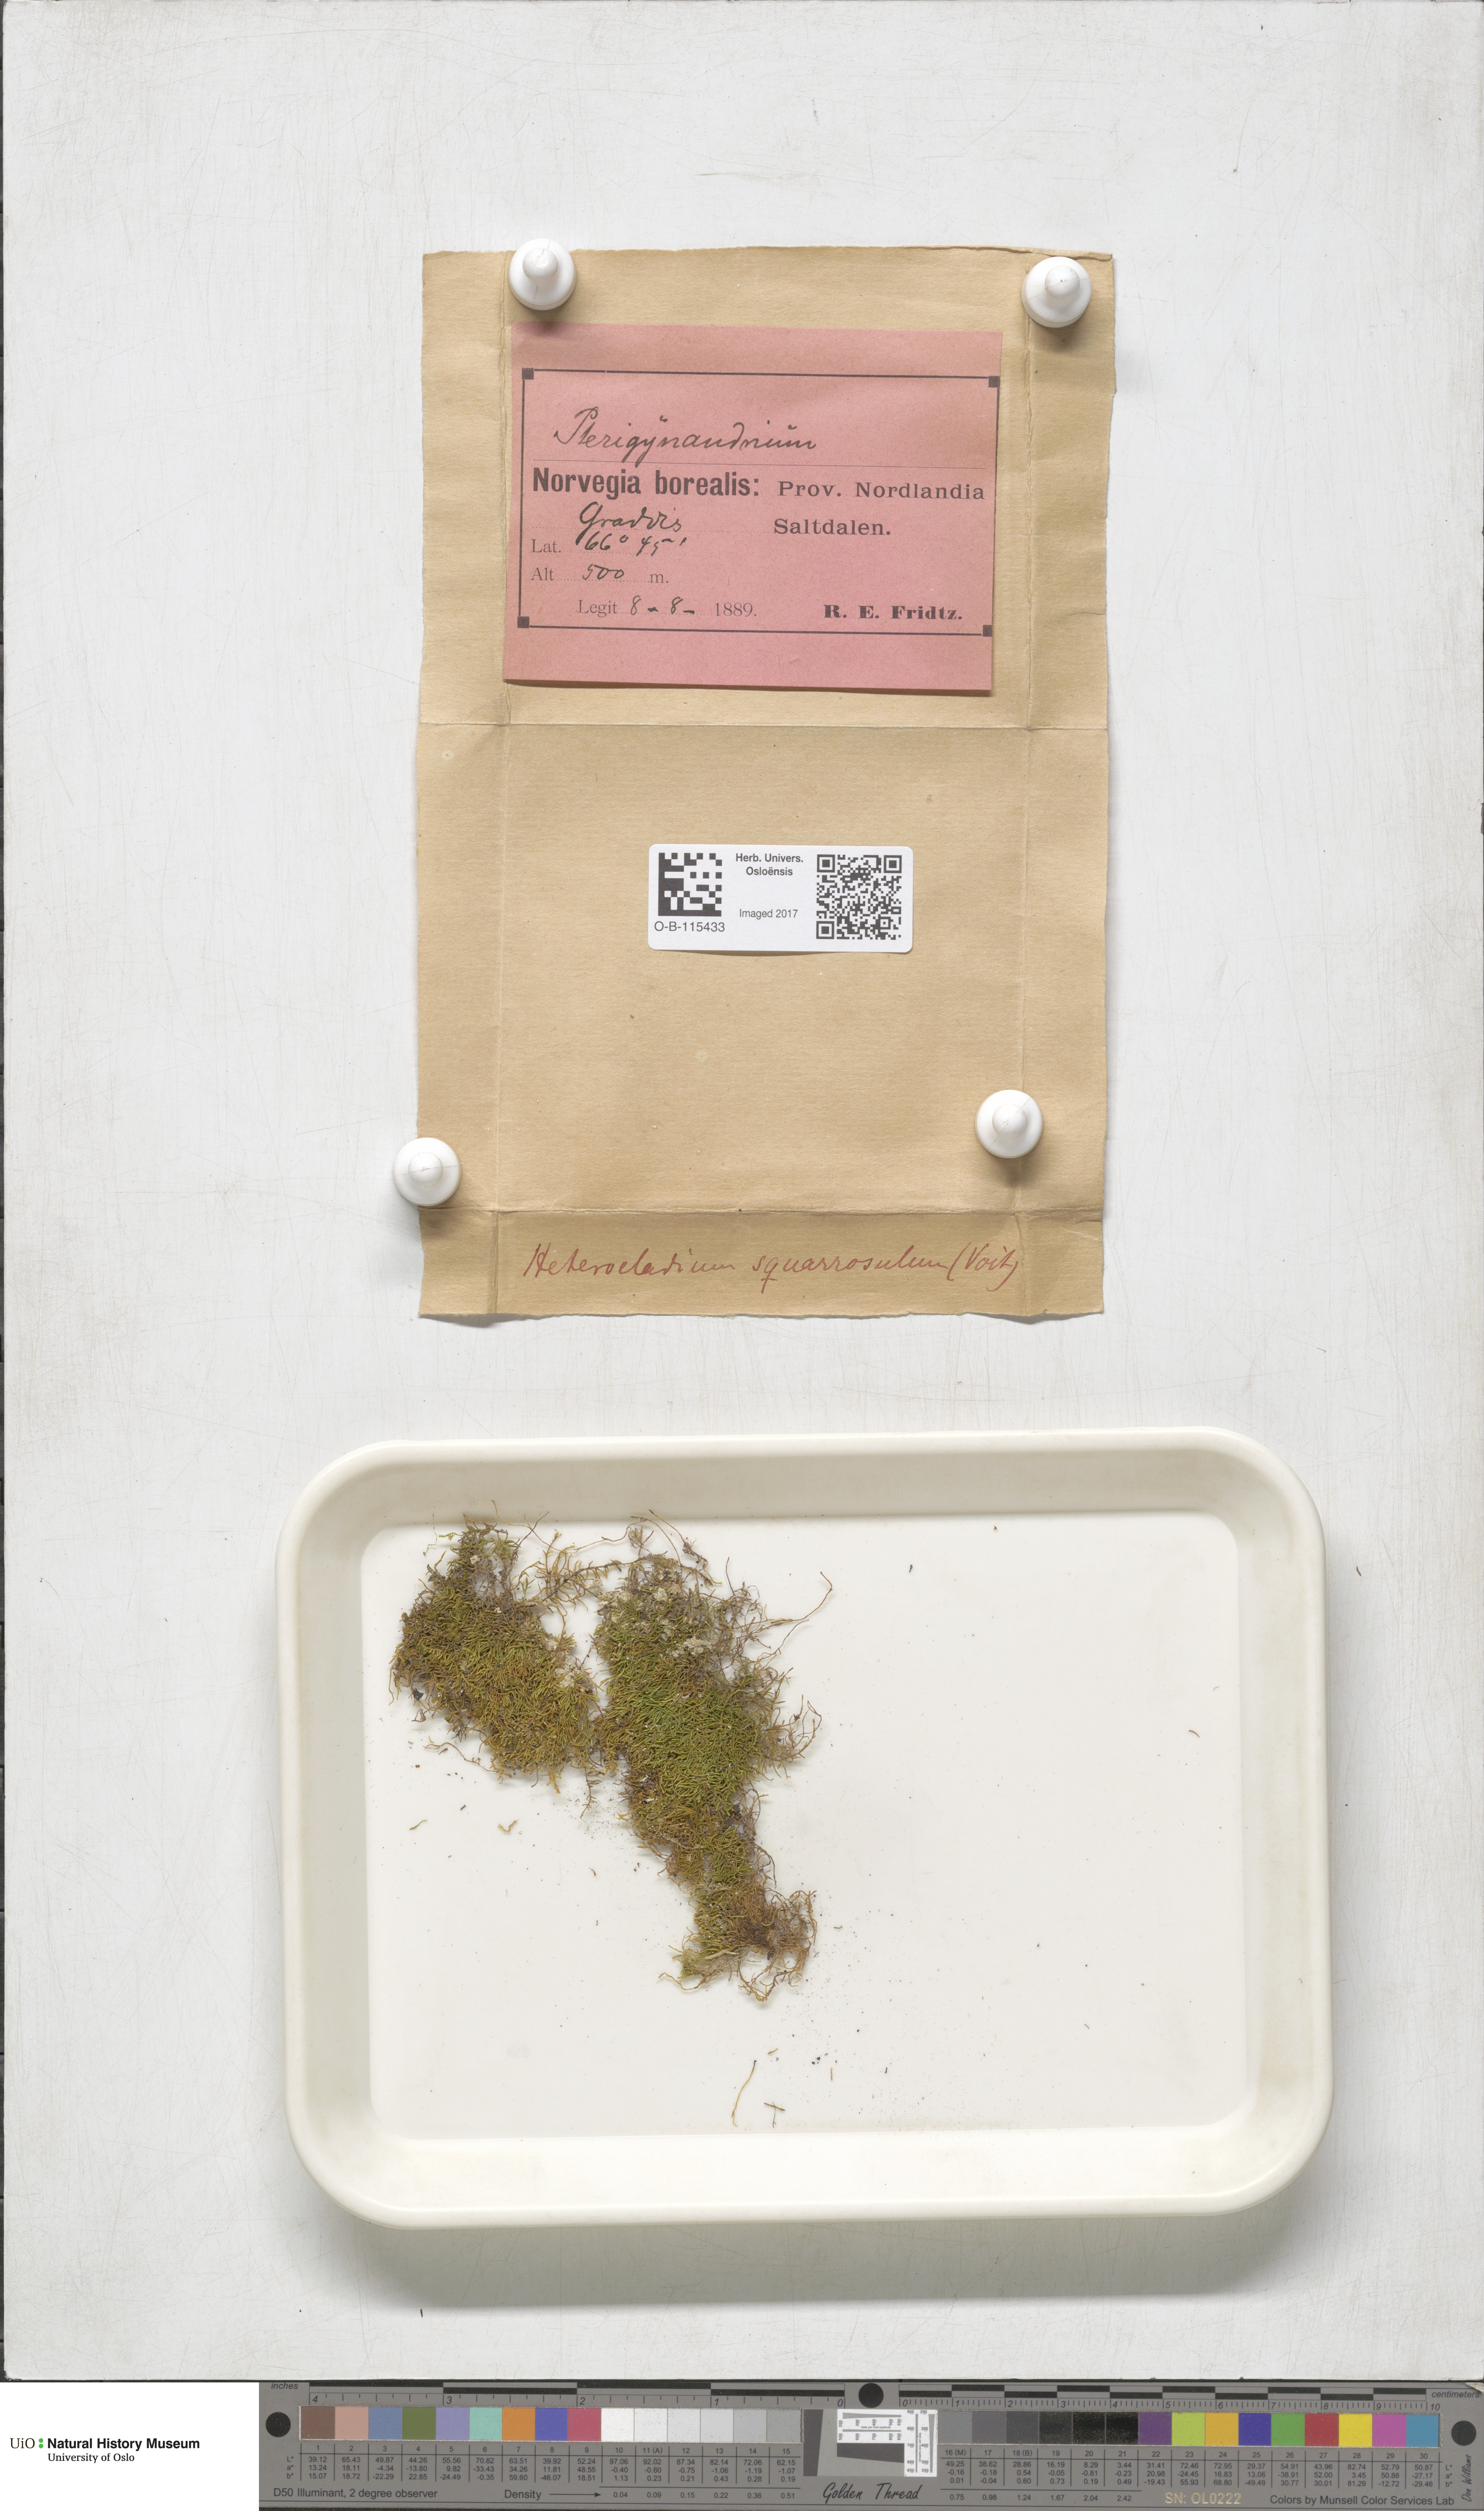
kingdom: Plantae
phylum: Bryophyta
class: Bryopsida
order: Hypnales
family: Heterocladiellaceae
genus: Heterocladiella
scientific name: Heterocladiella dimorpha
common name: Dimorphous tamarisk-moss
